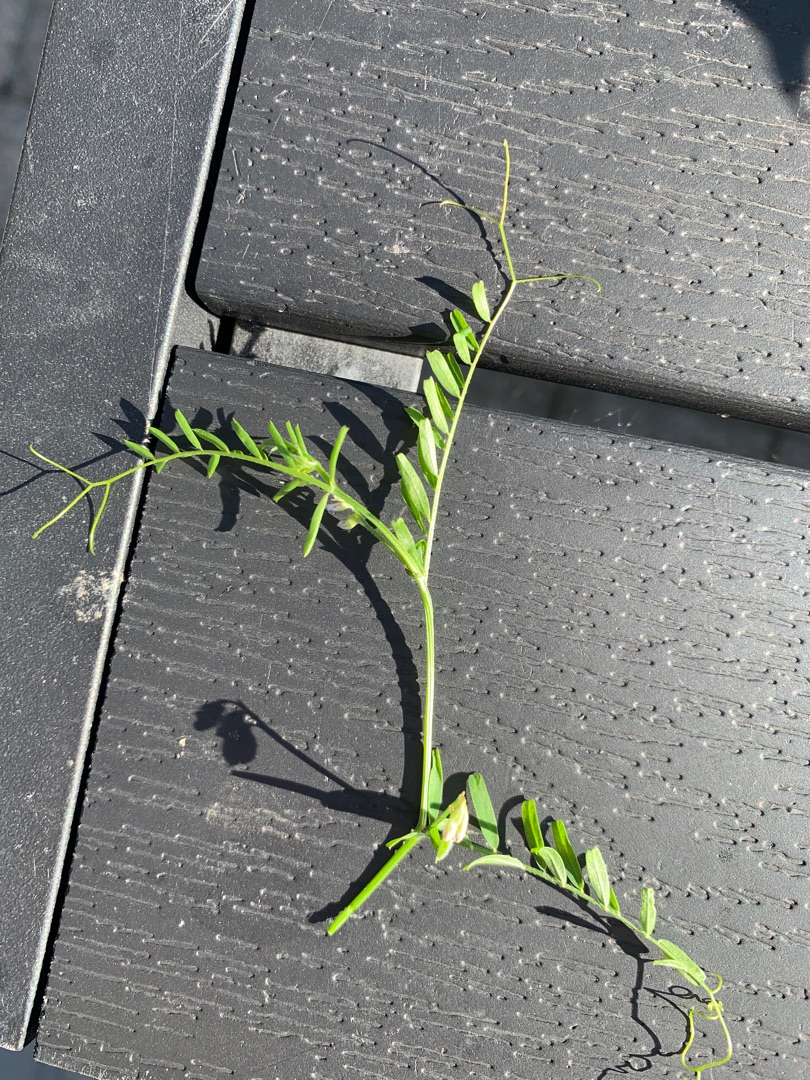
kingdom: Plantae
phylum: Tracheophyta
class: Magnoliopsida
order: Fabales
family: Fabaceae
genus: Vicia
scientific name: Vicia hirsuta
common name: Tofrøet vikke
